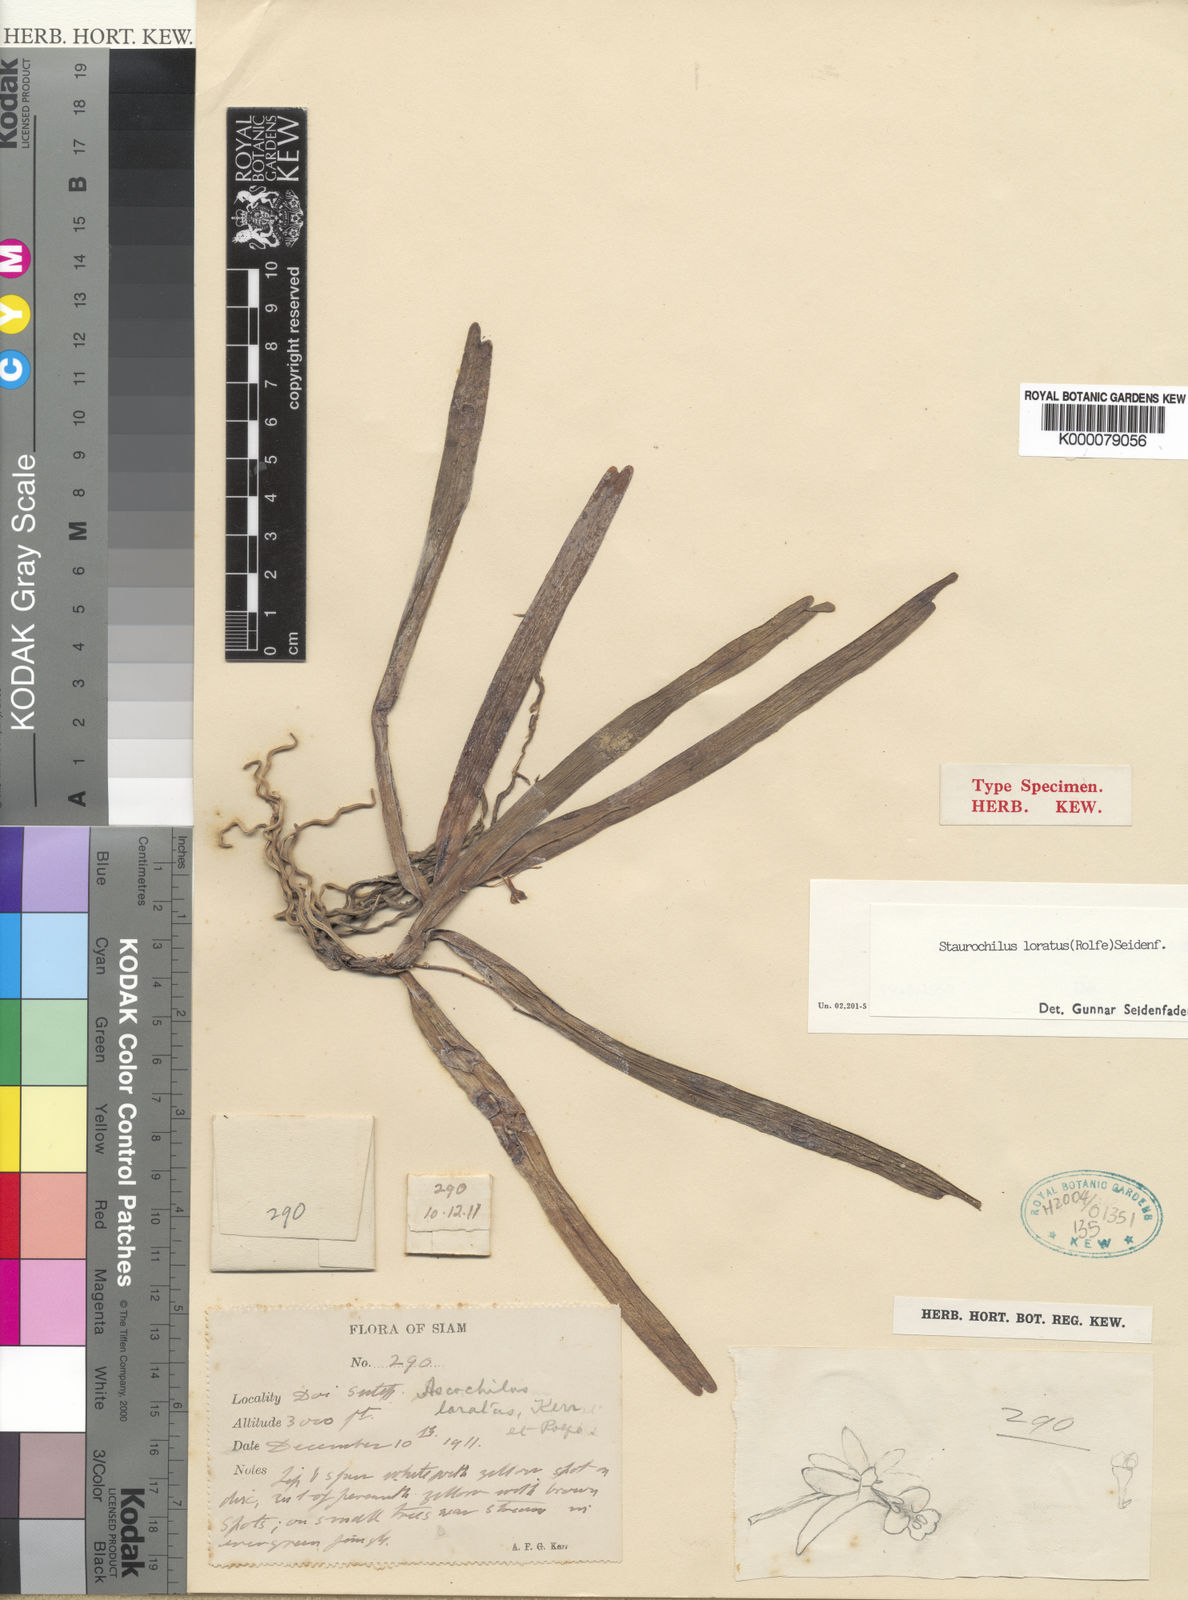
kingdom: Plantae
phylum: Tracheophyta
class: Liliopsida
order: Asparagales
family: Orchidaceae
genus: Trichoglottis
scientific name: Trichoglottis lorata
